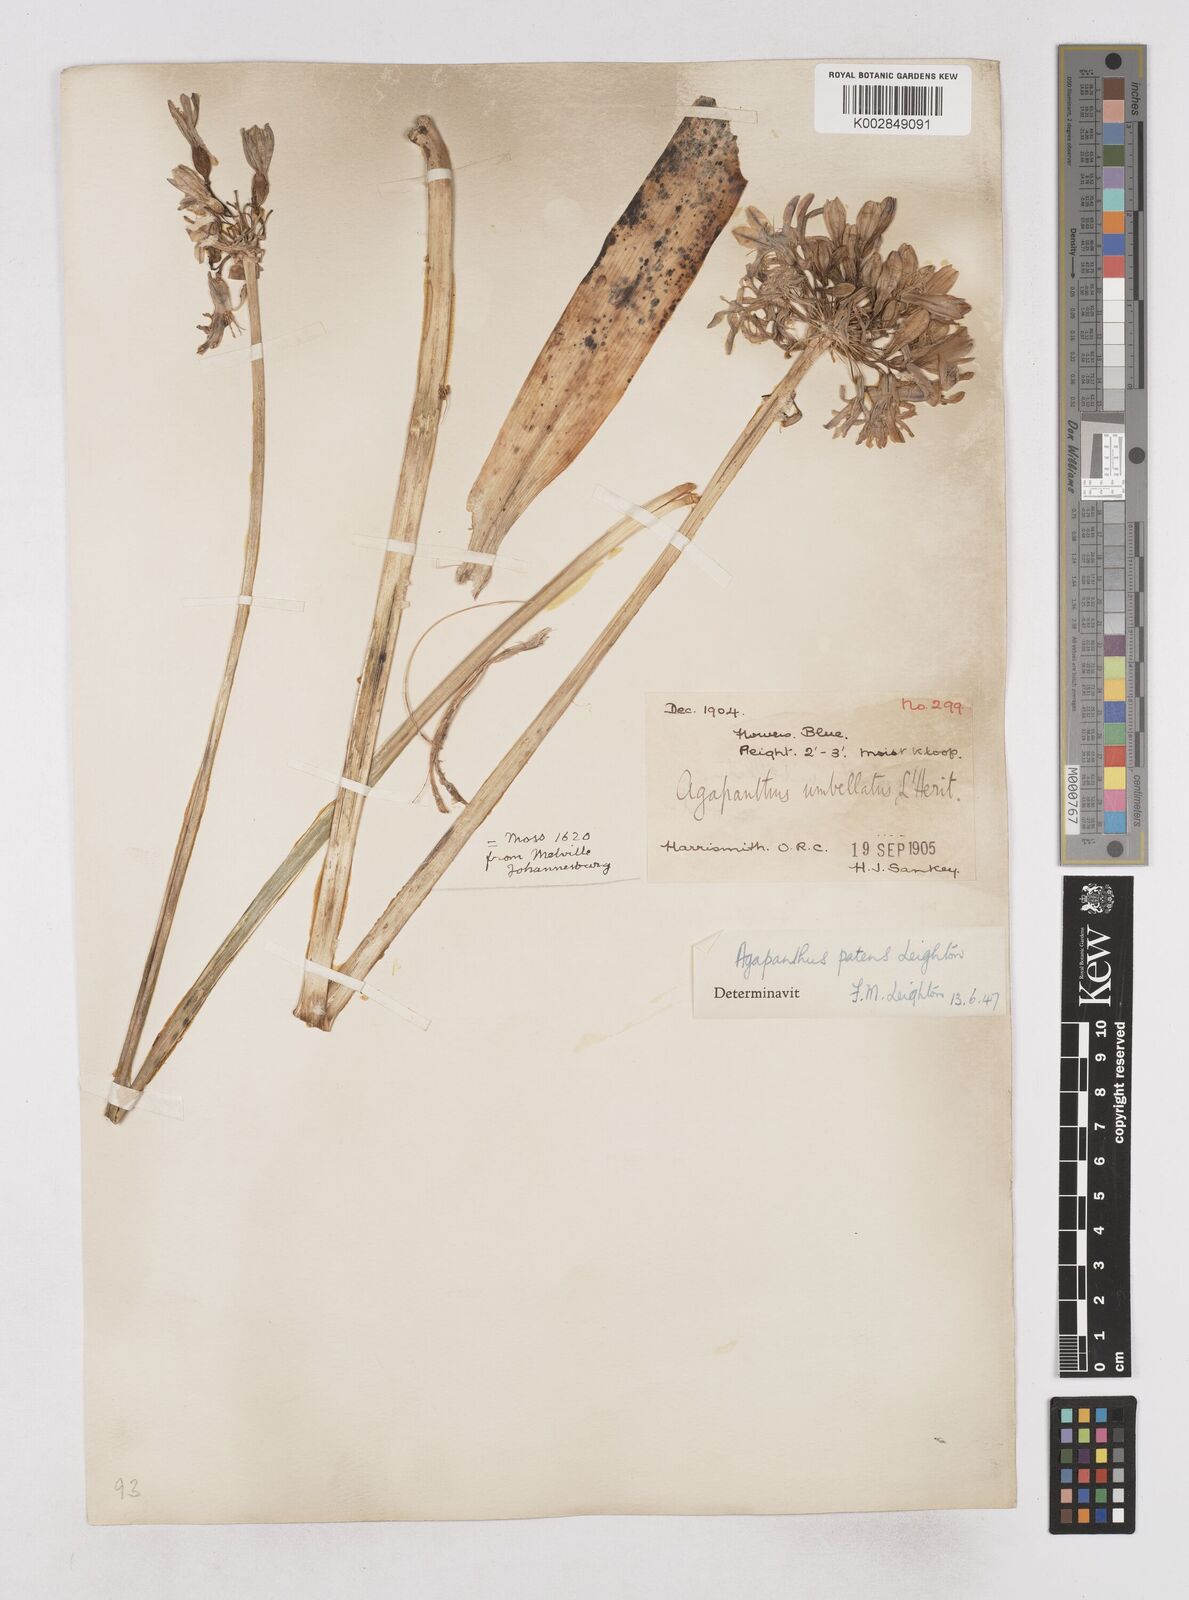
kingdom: Plantae
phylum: Tracheophyta
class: Liliopsida
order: Asparagales
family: Amaryllidaceae
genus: Agapanthus
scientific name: Agapanthus campanulatus
